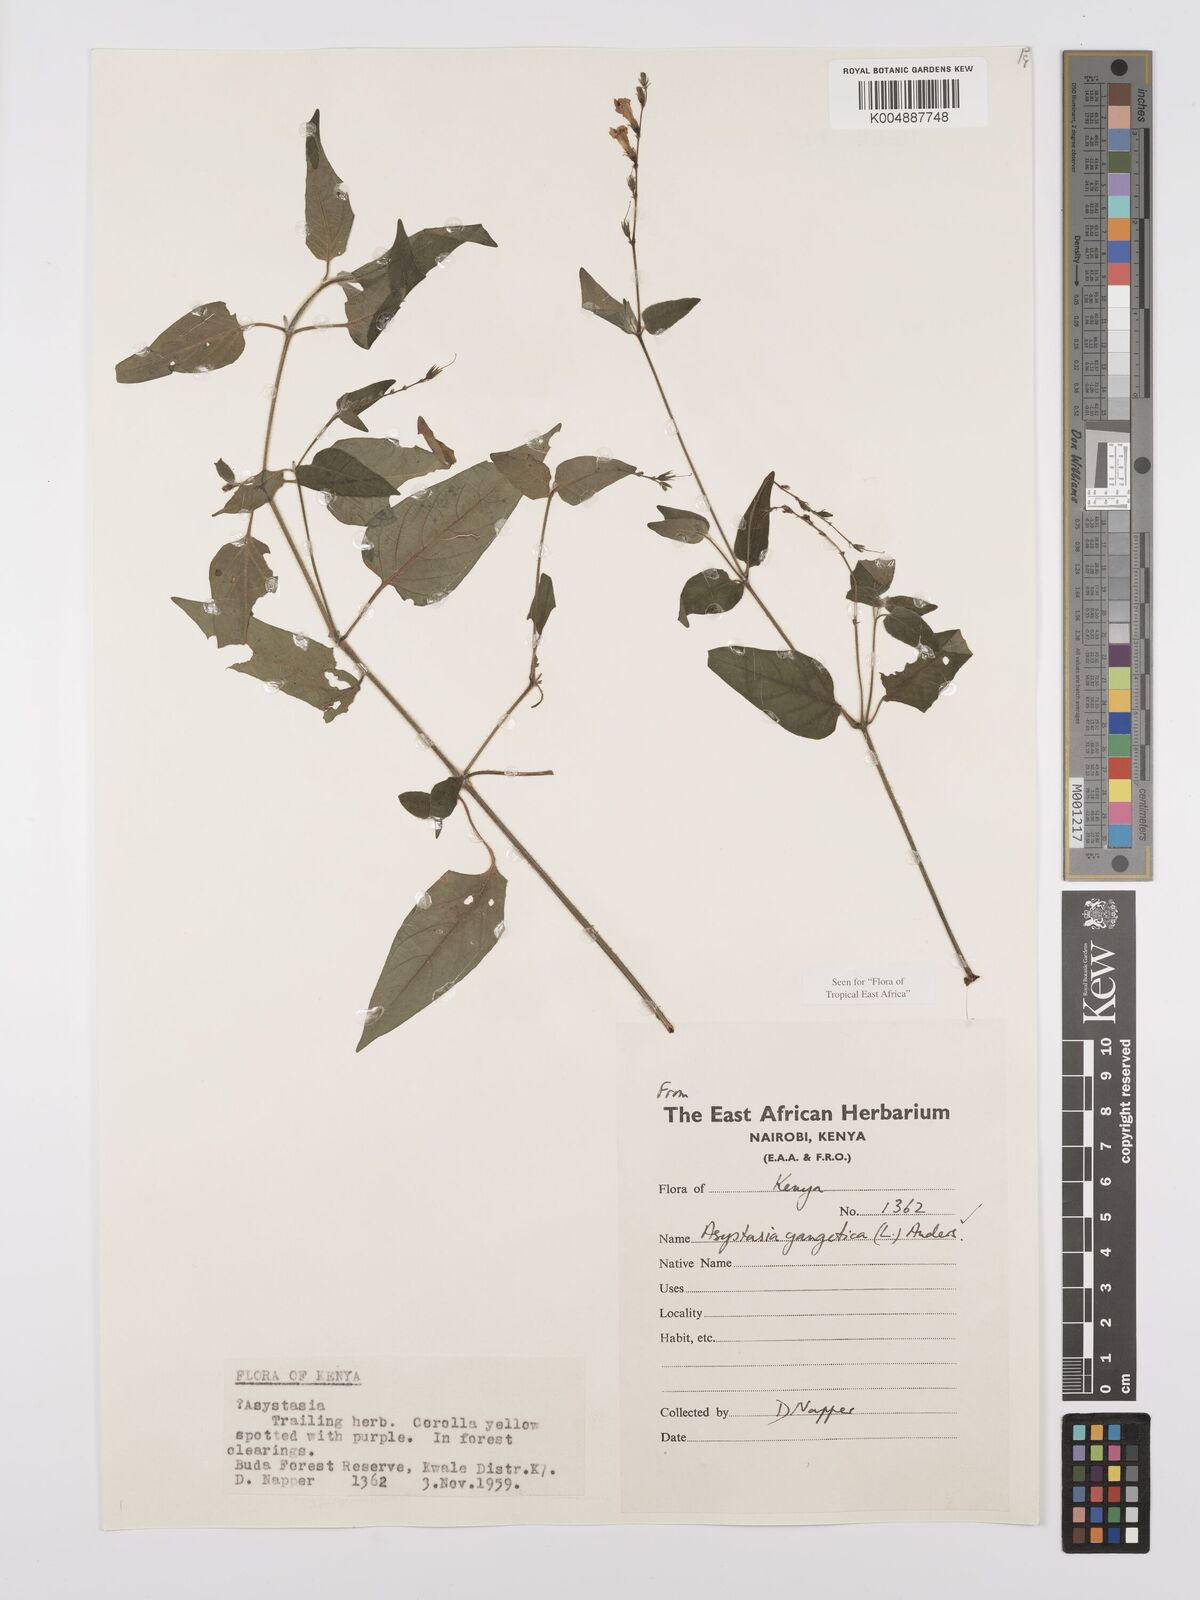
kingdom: Plantae
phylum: Tracheophyta
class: Magnoliopsida
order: Lamiales
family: Acanthaceae
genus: Asystasia
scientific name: Asystasia gangetica
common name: Chinese violet
